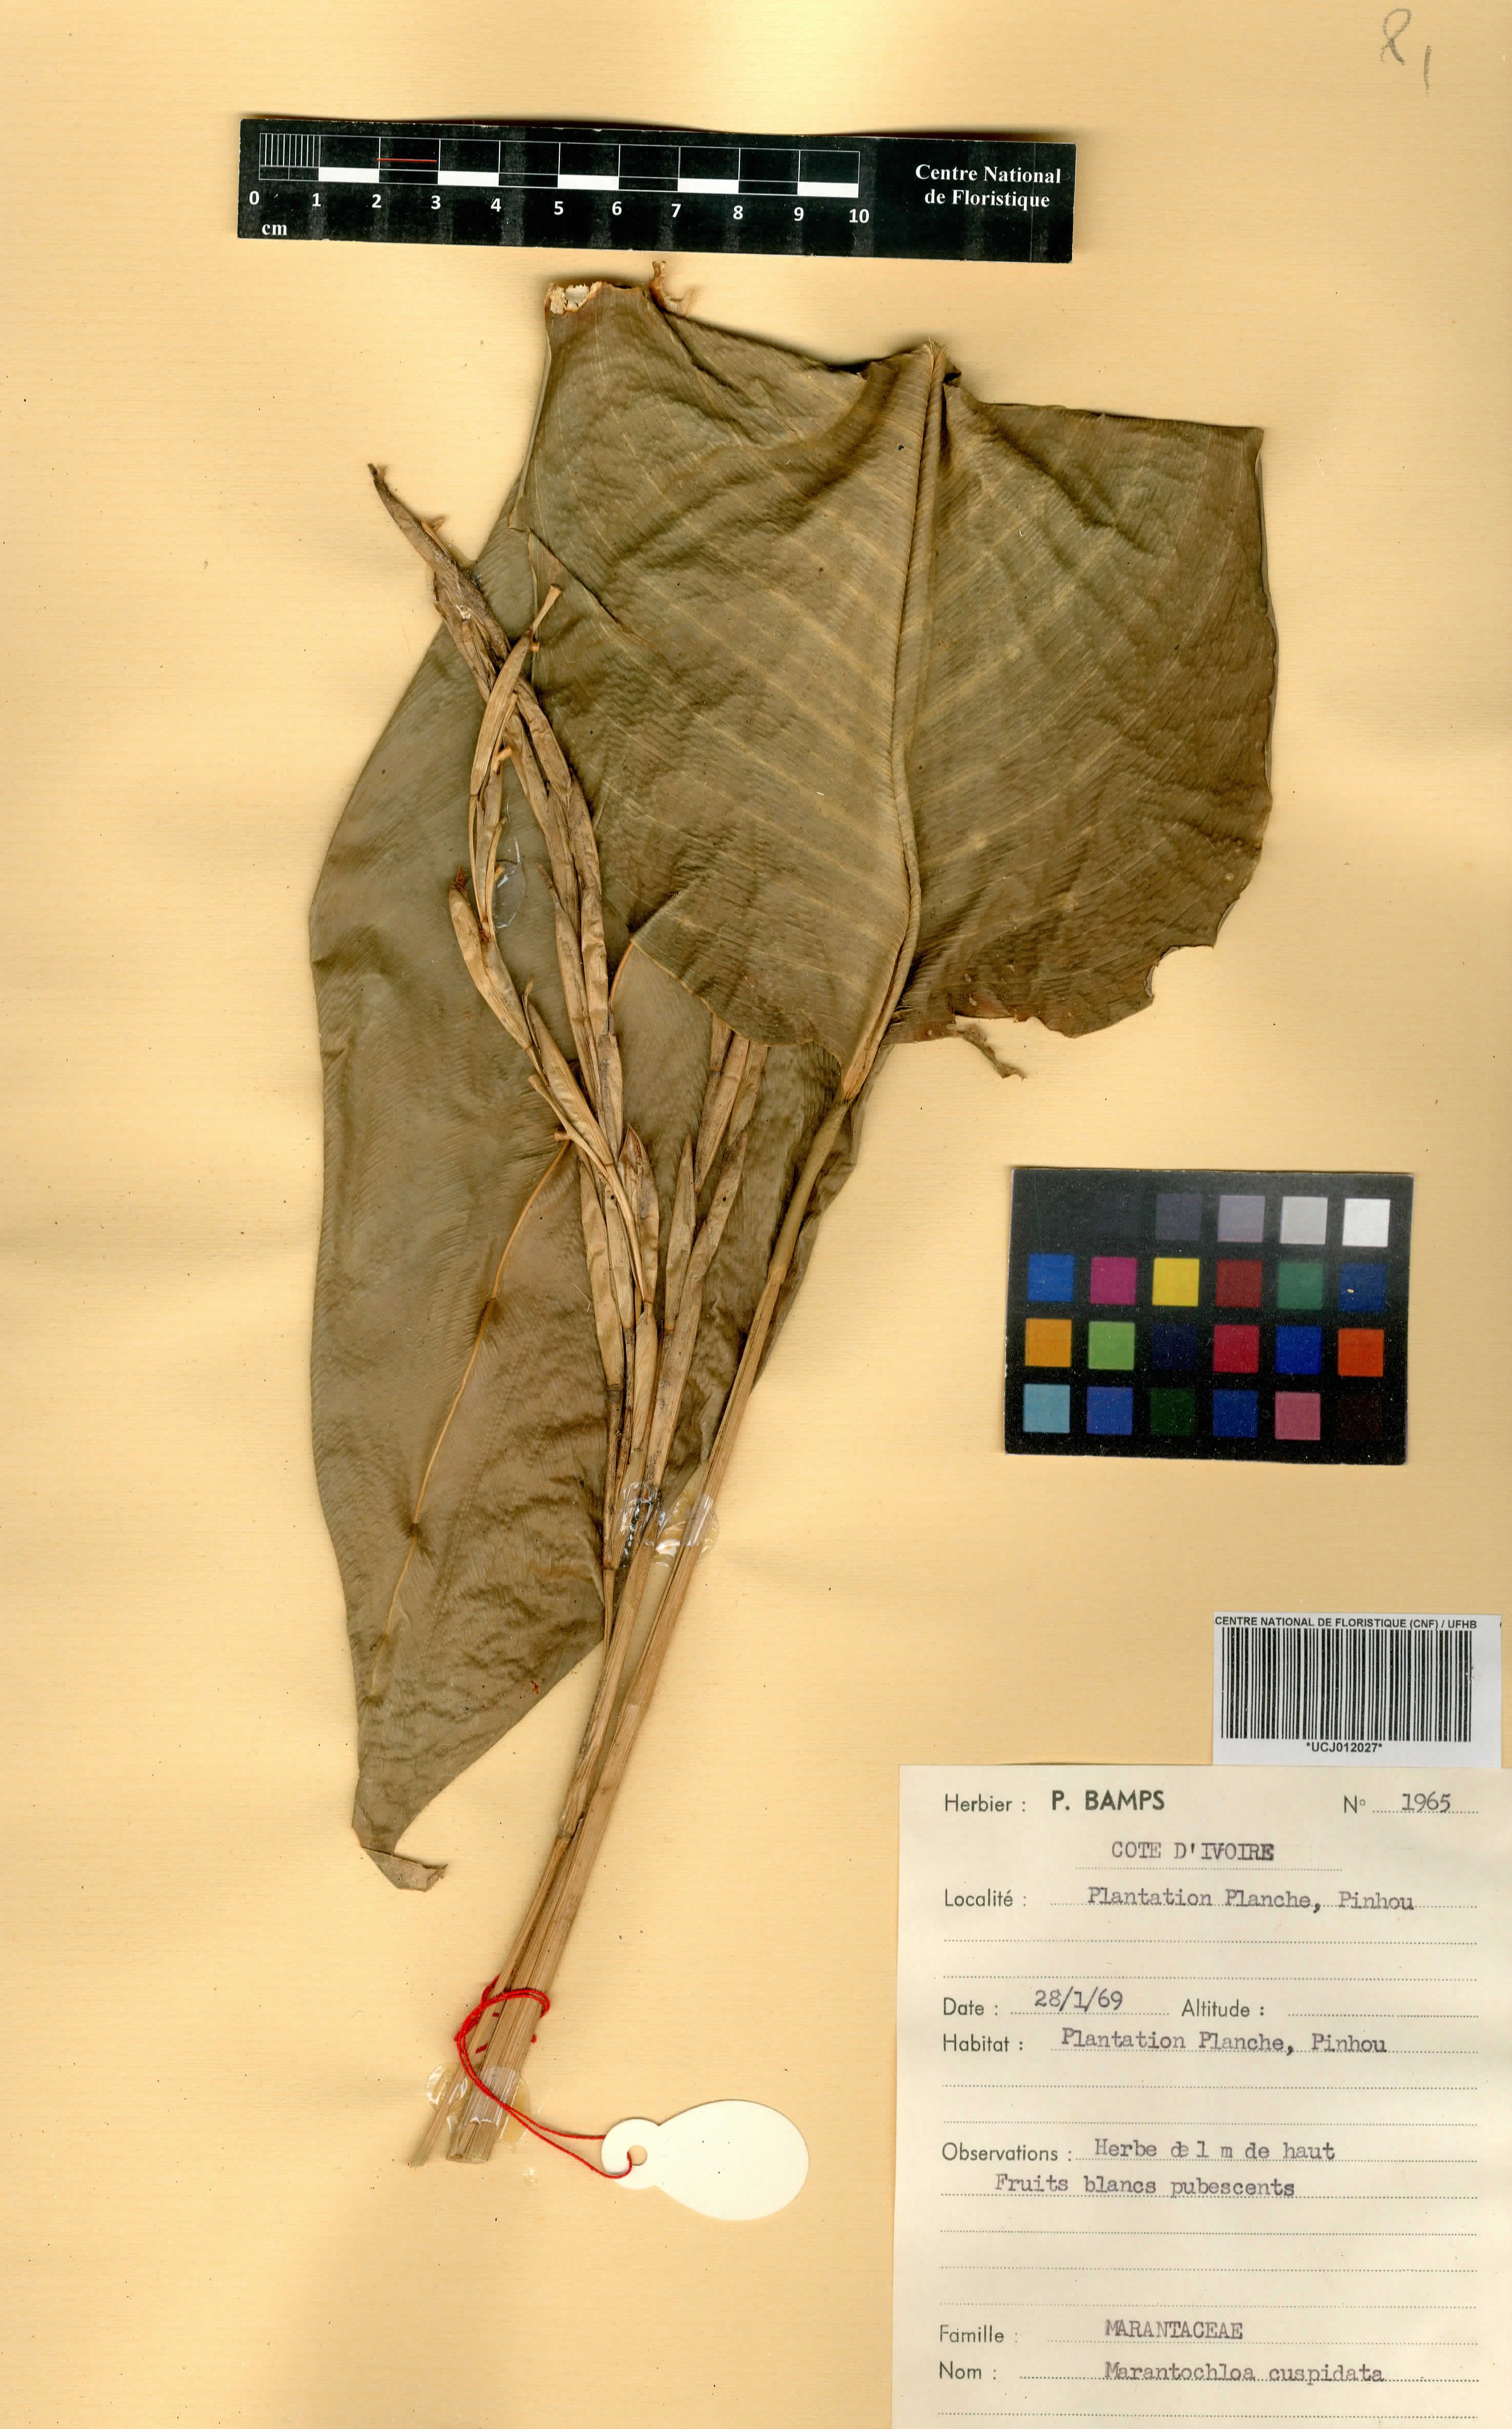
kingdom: Plantae
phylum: Tracheophyta
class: Liliopsida
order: Zingiberales
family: Marantaceae
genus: Marantochloa
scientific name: Marantochloa cuspidata
